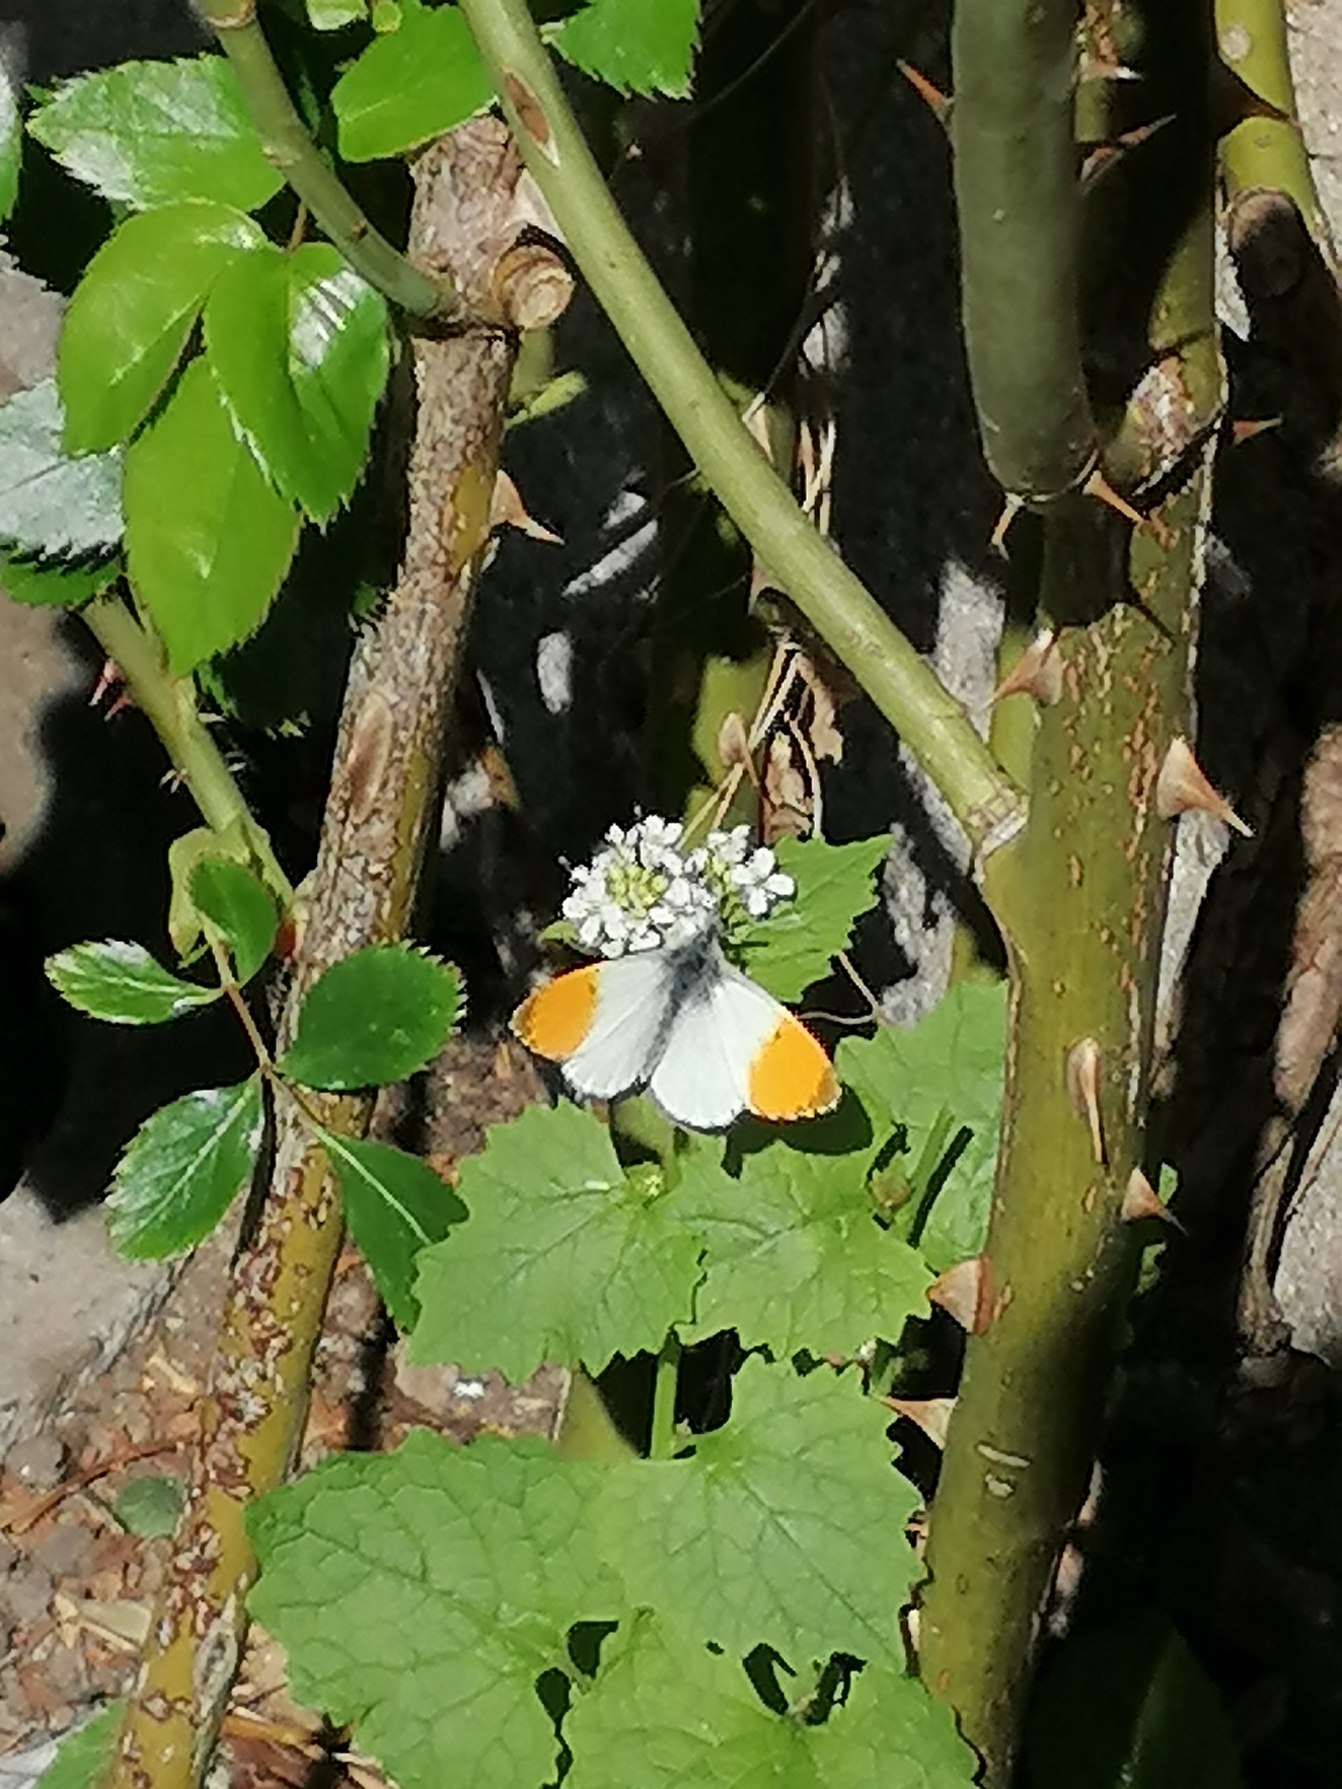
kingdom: Animalia
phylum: Arthropoda
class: Insecta
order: Lepidoptera
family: Pieridae
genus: Anthocharis
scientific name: Anthocharis cardamines
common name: Aurora
